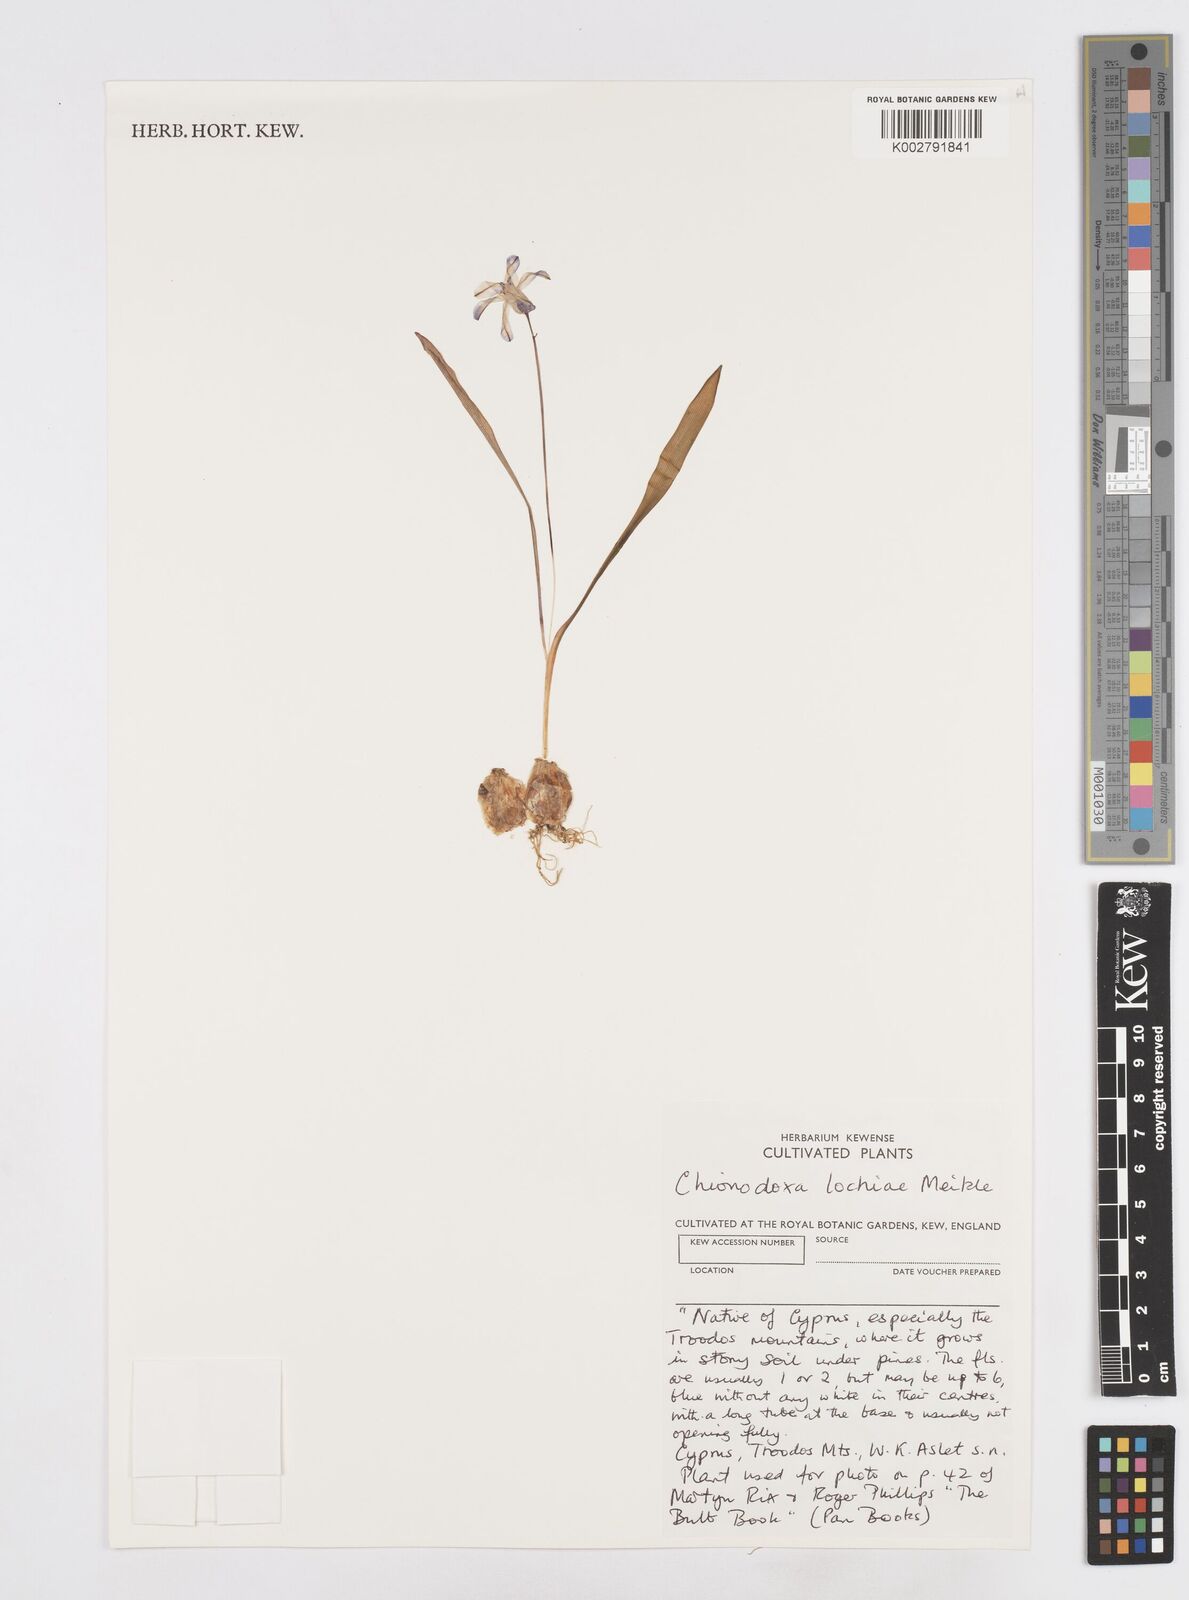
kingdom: Plantae
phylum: Tracheophyta
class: Liliopsida
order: Asparagales
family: Asparagaceae
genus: Scilla
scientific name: Scilla lochiae
